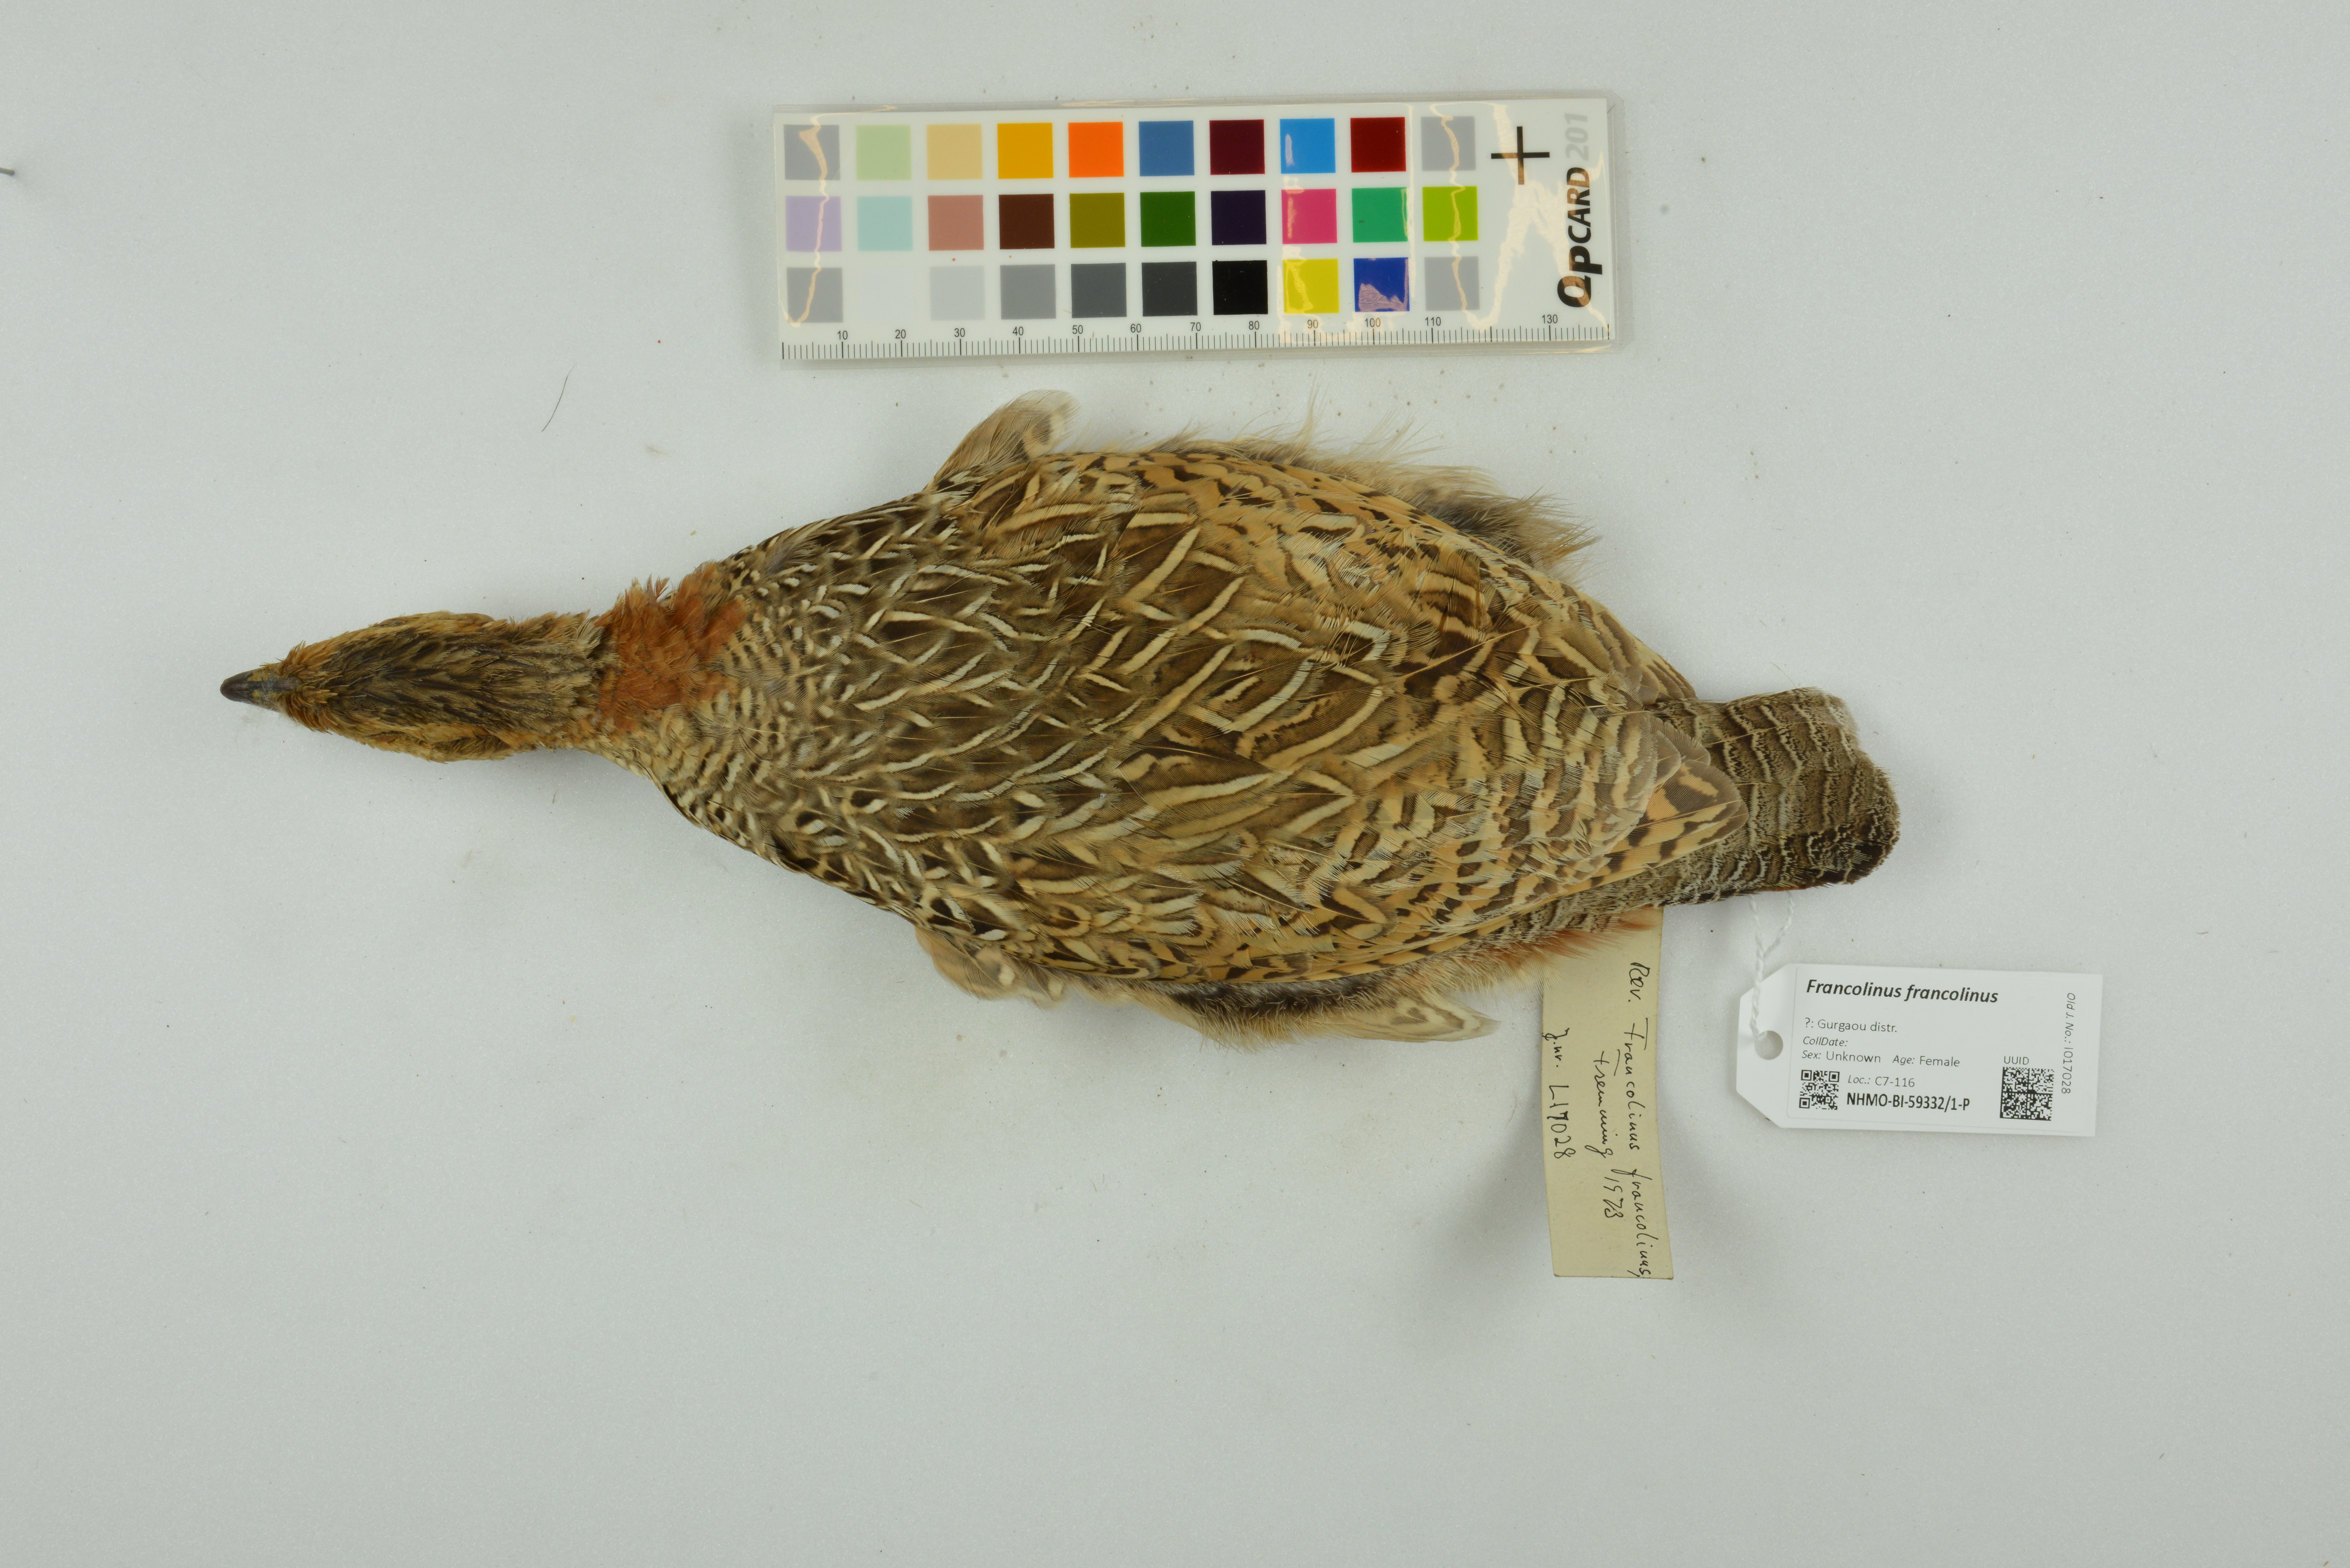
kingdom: Animalia
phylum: Chordata
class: Aves
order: Galliformes
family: Phasianidae
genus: Francolinus
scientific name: Francolinus francolinus
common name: Black francolin
